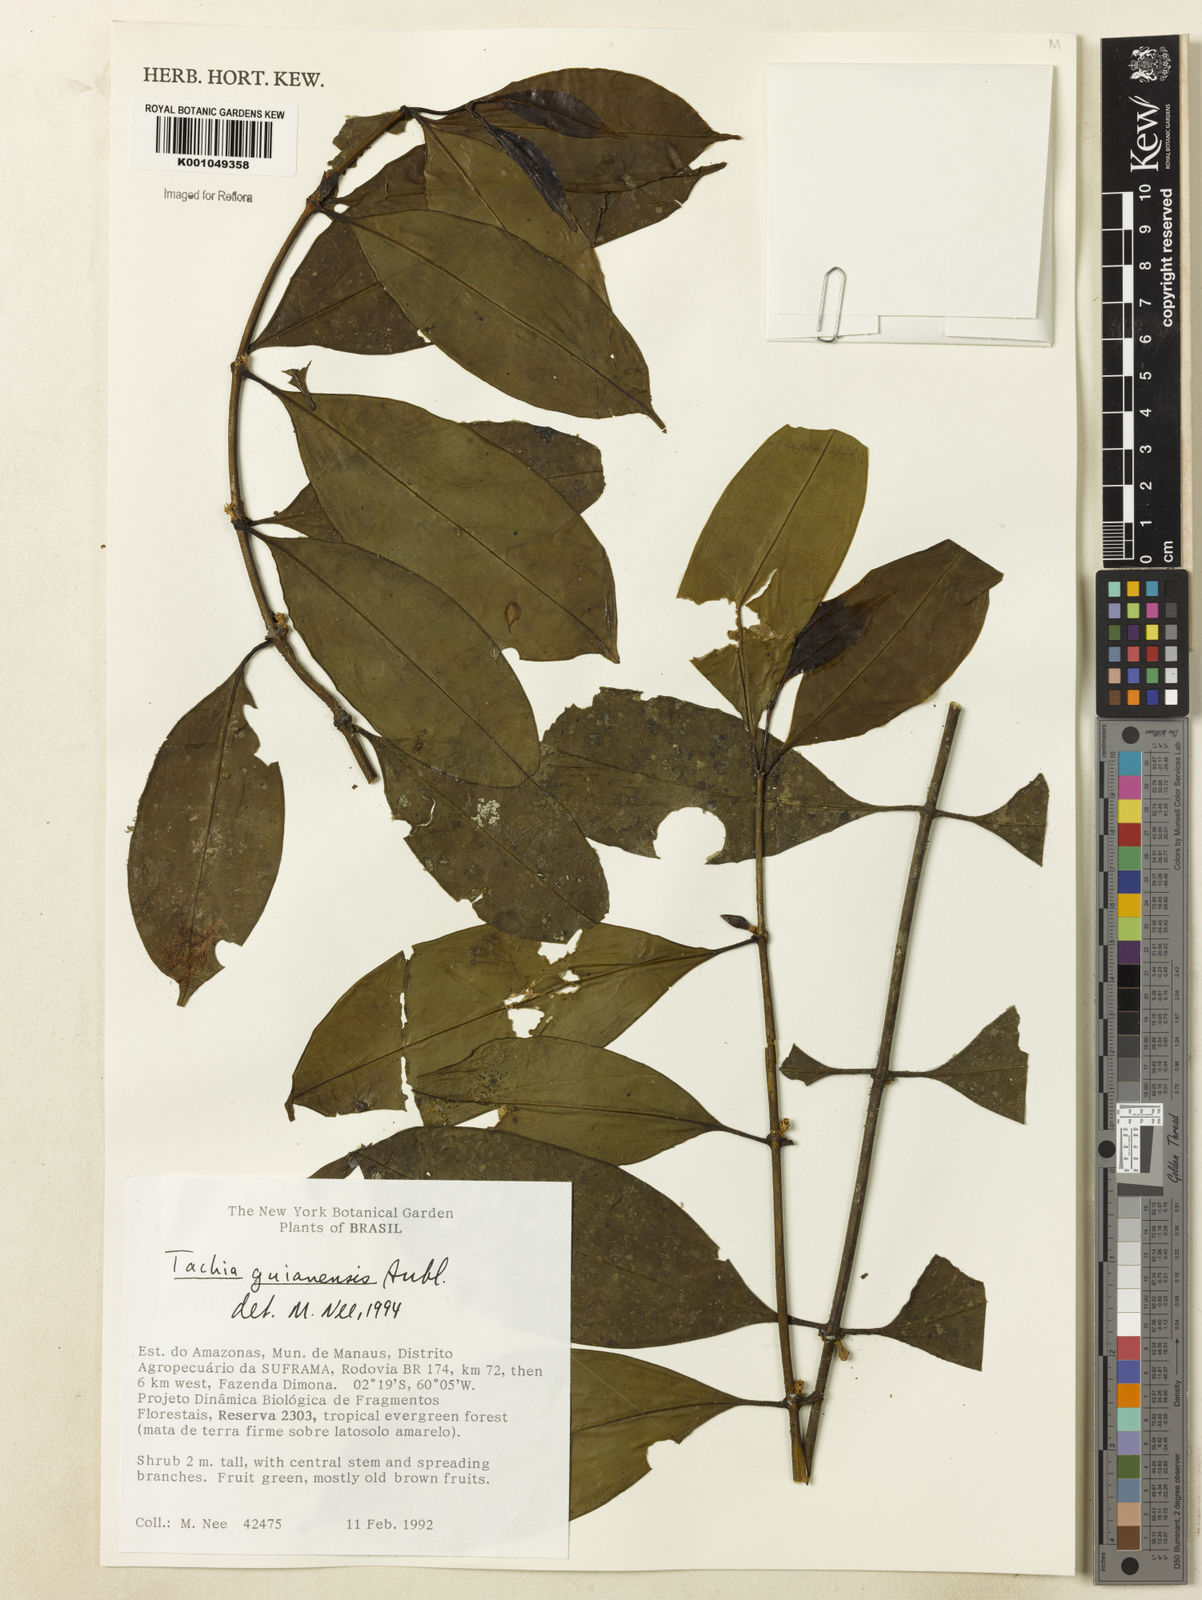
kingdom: Plantae
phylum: Tracheophyta
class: Magnoliopsida
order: Gentianales
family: Gentianaceae
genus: Tachia
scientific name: Tachia guianensis
